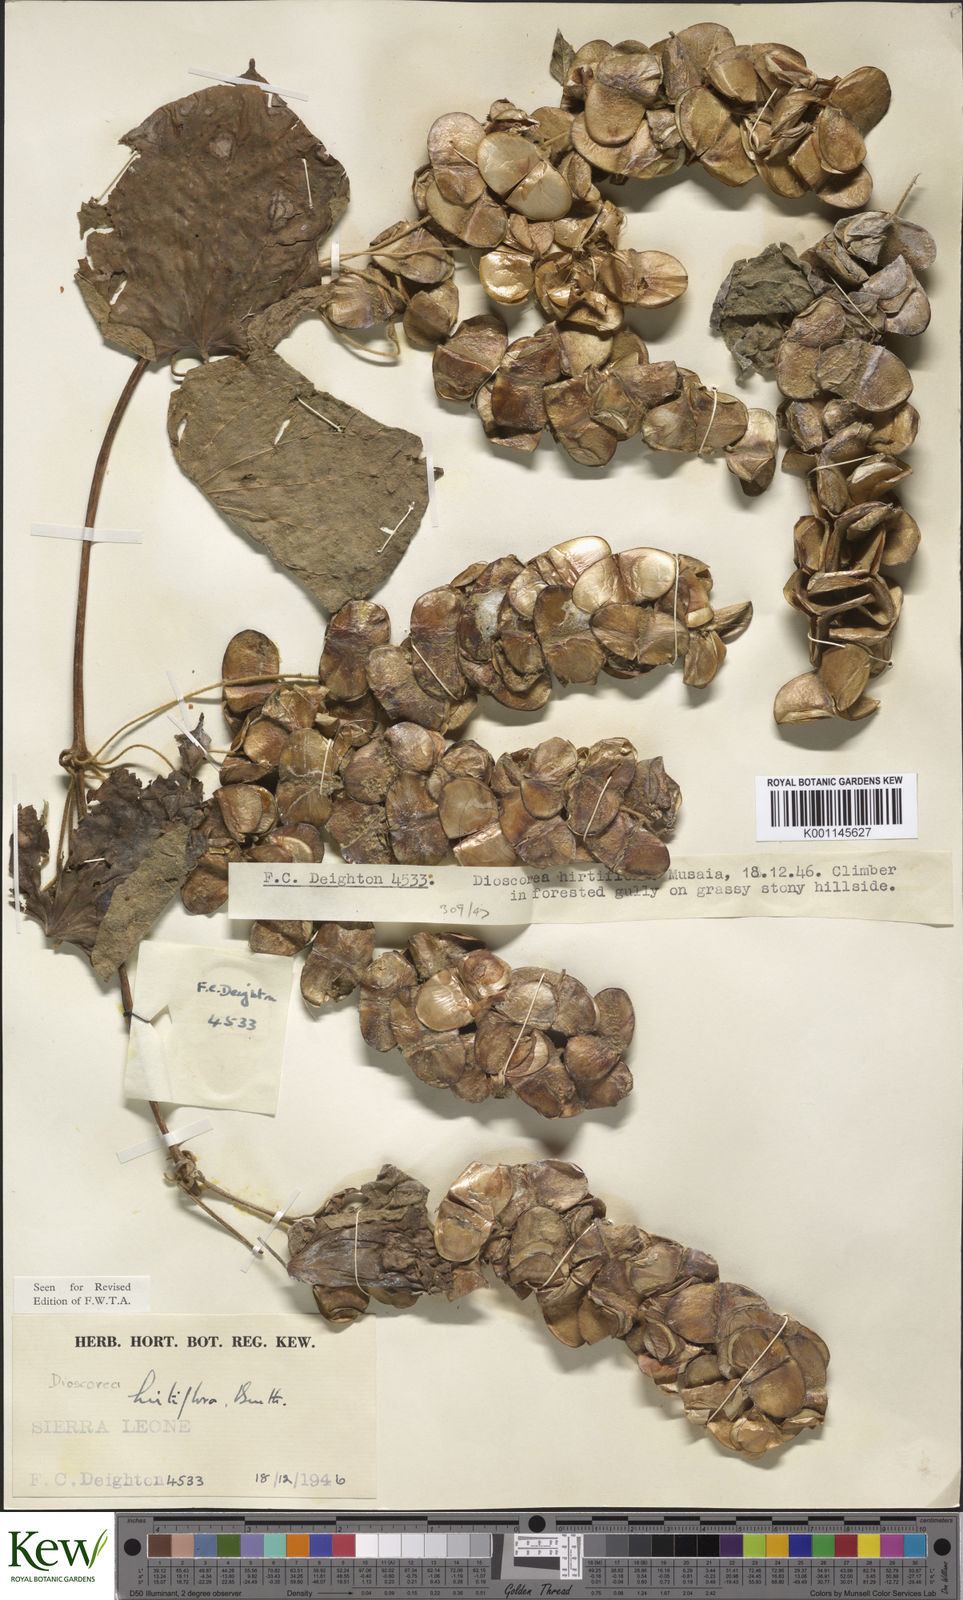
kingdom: Plantae
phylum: Tracheophyta
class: Liliopsida
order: Dioscoreales
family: Dioscoreaceae
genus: Dioscorea
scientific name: Dioscorea hirtiflora
